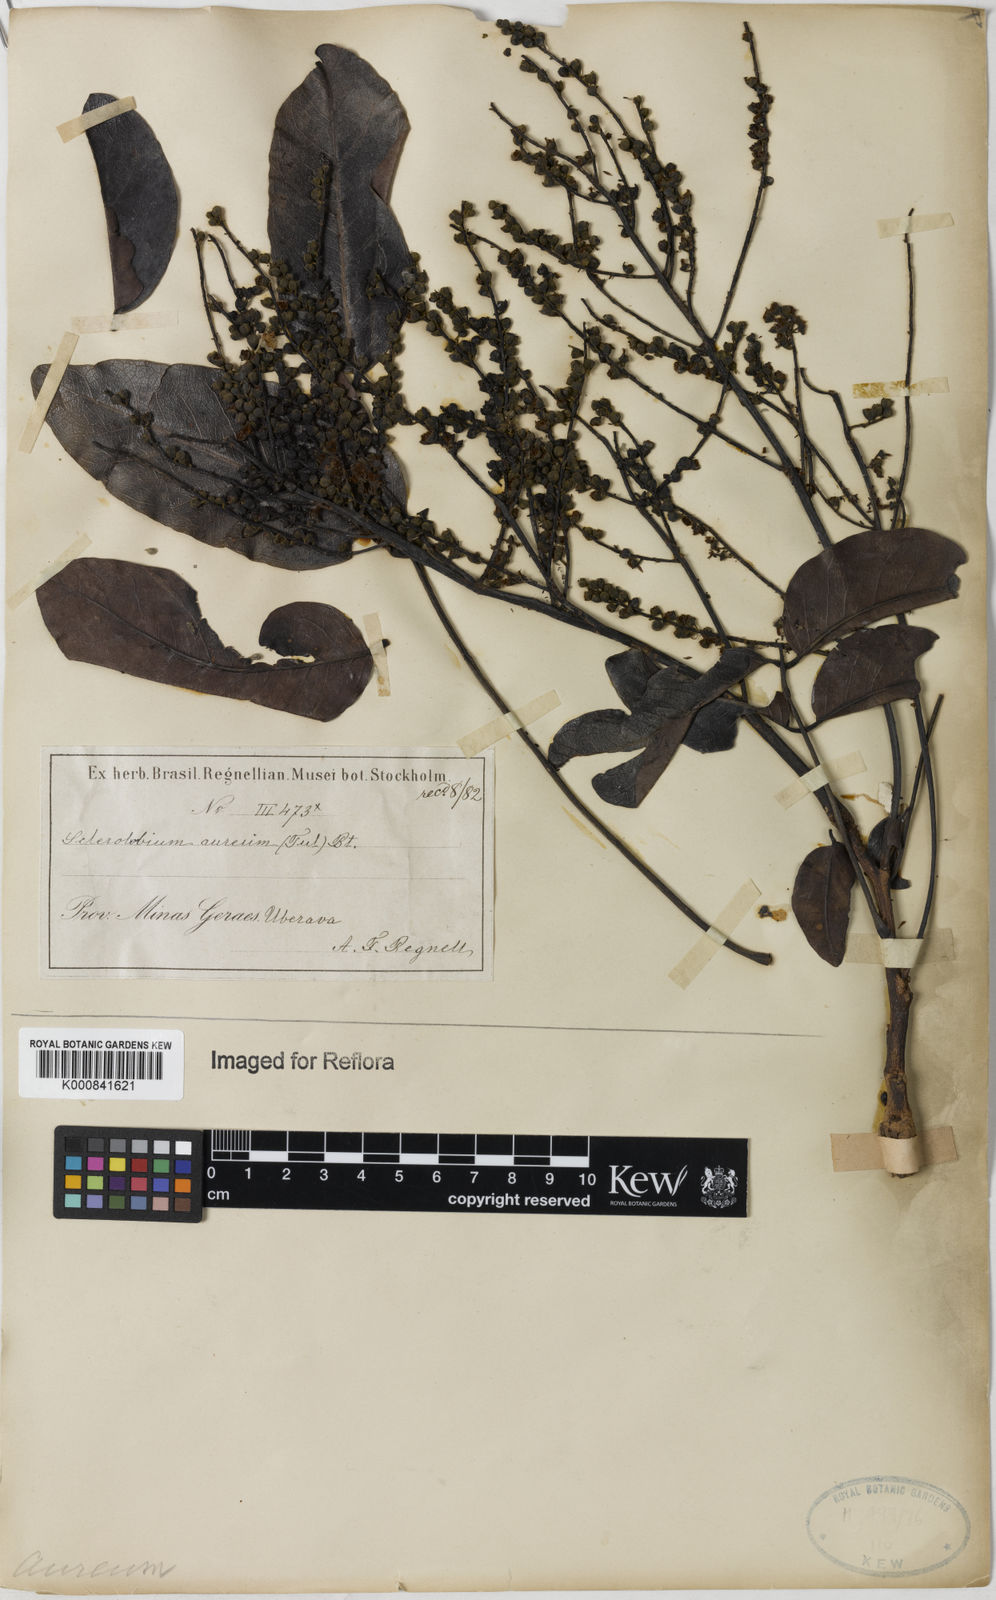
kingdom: Plantae
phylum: Tracheophyta
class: Magnoliopsida
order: Fabales
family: Fabaceae
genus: Tachigali
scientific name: Tachigali aurea
